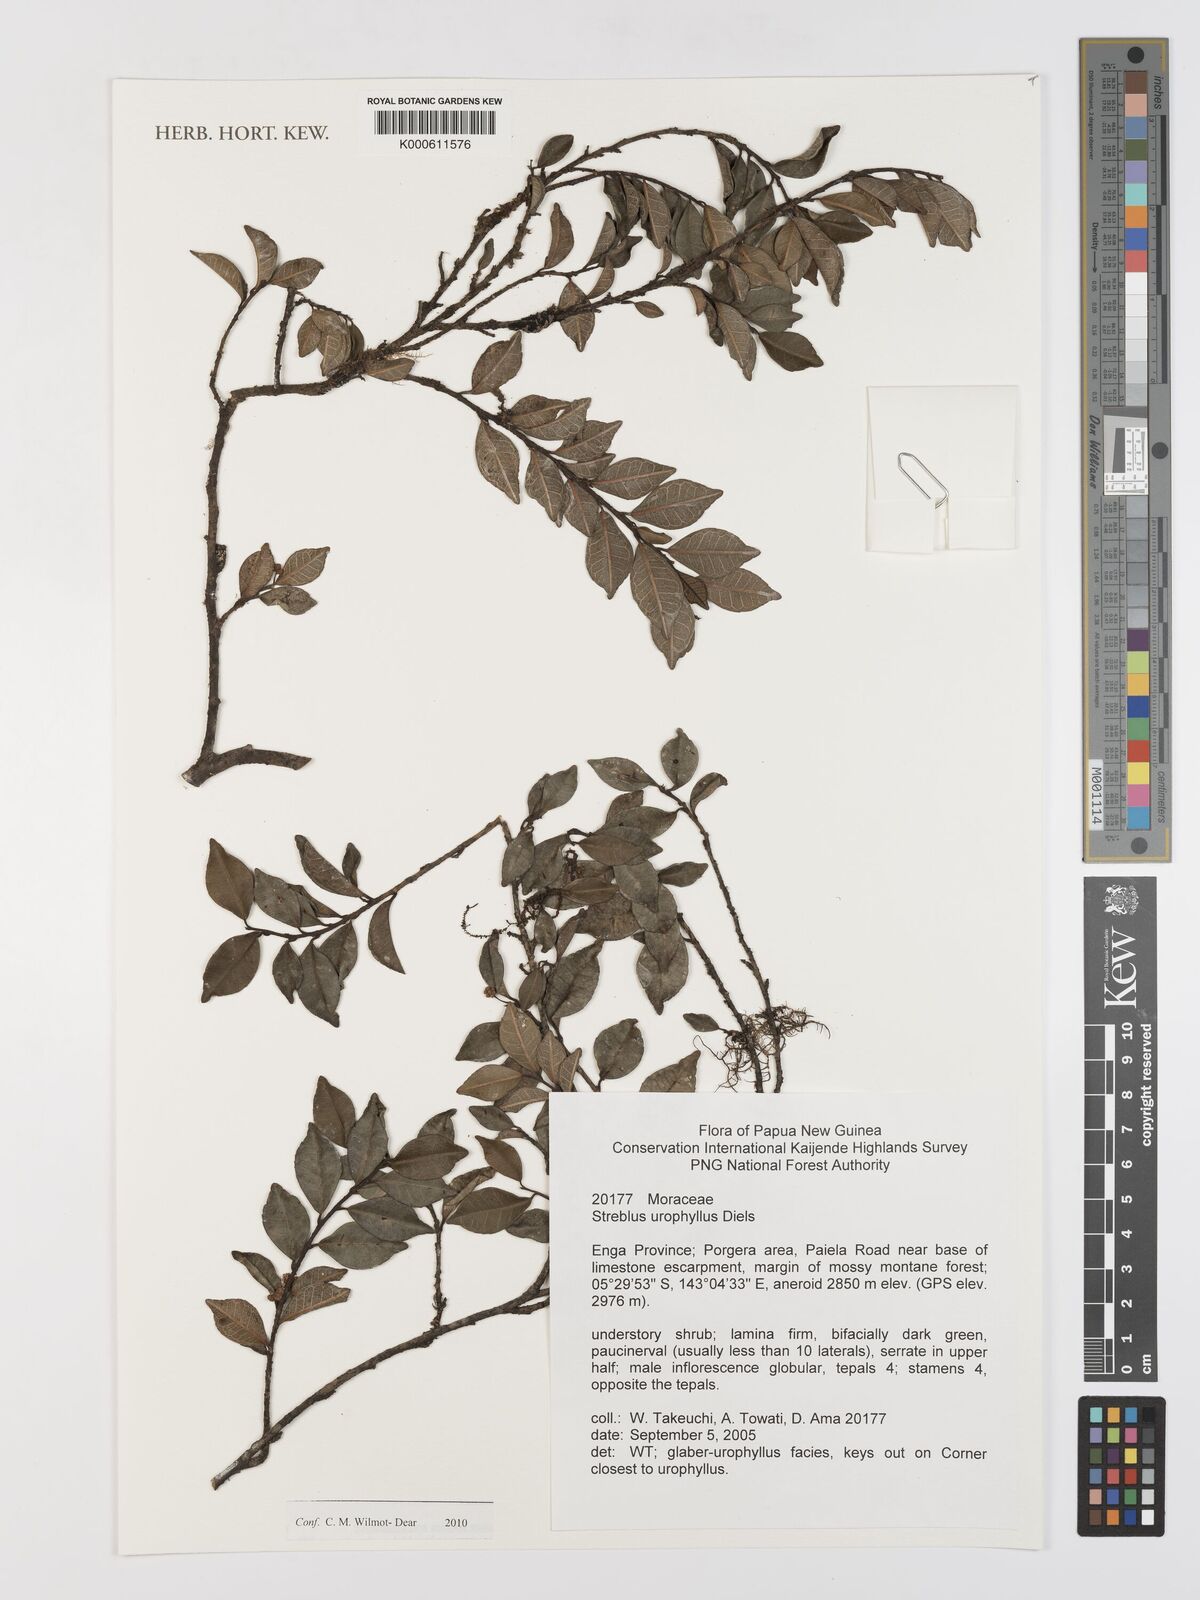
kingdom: Plantae
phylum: Tracheophyta
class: Magnoliopsida
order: Rosales
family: Moraceae
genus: Paratrophis
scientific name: Paratrophis glabra
